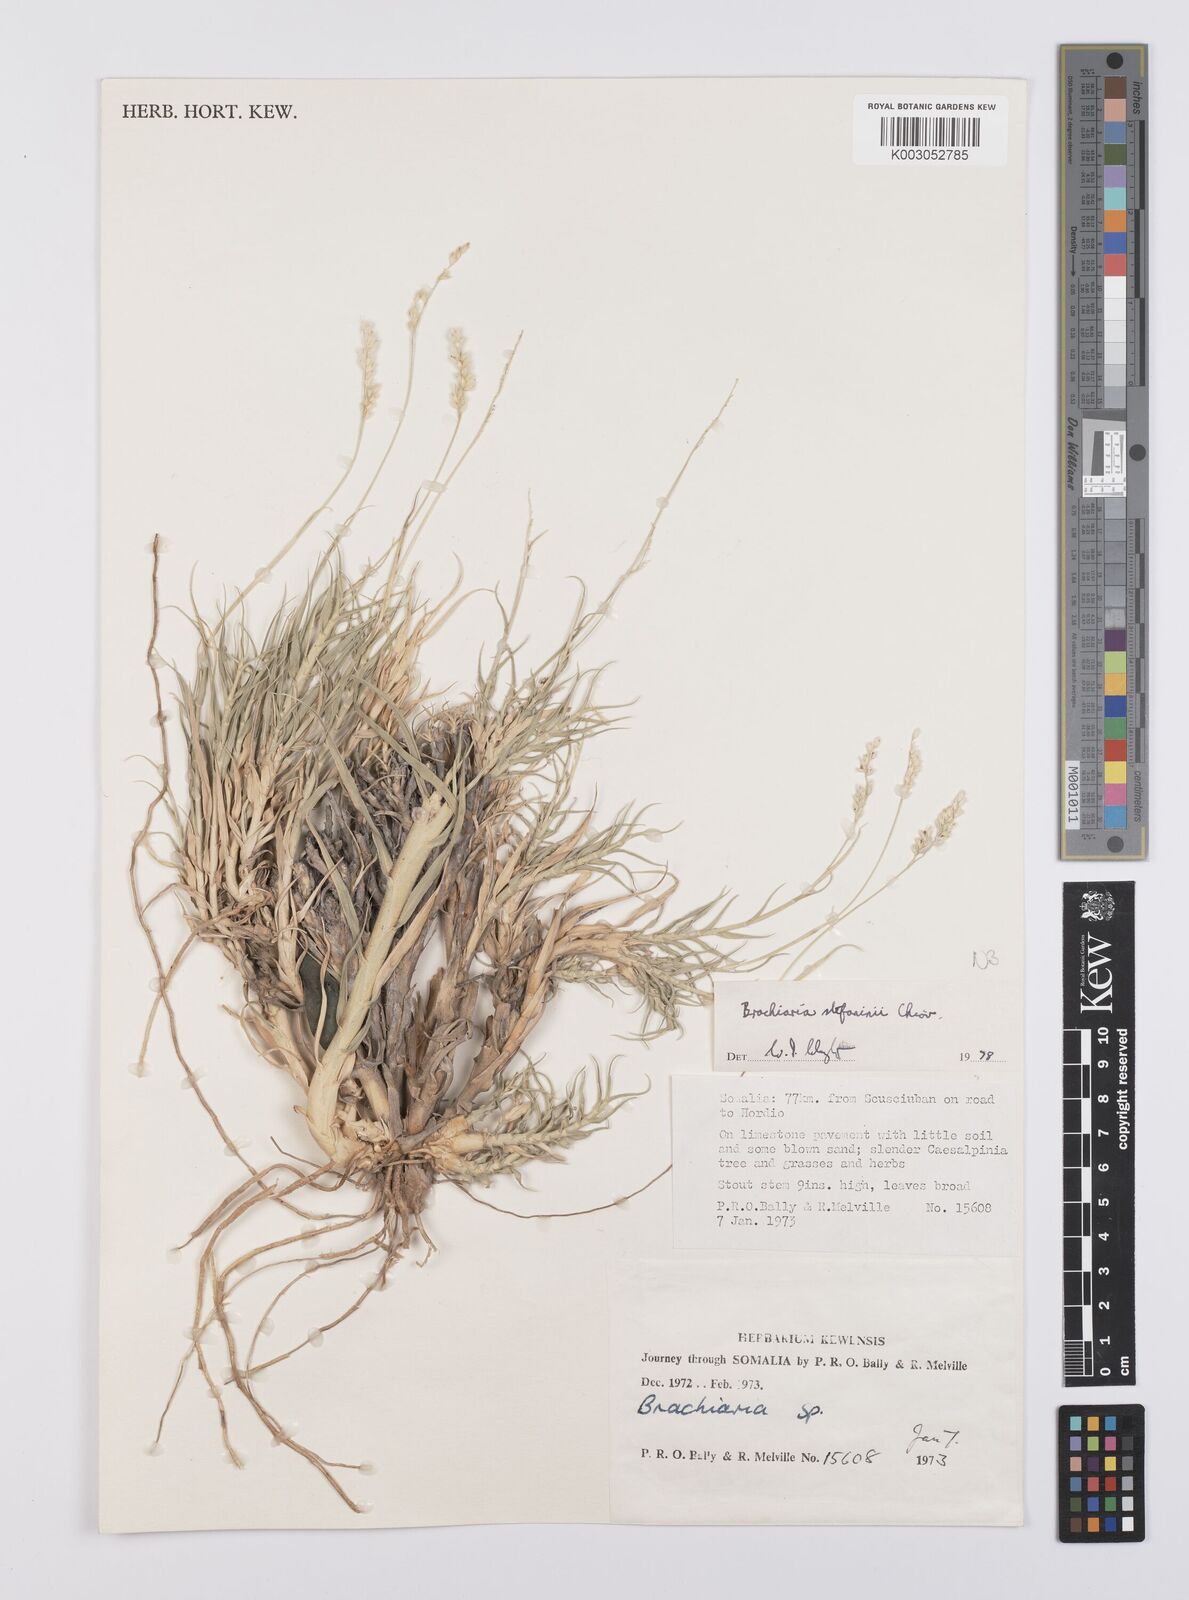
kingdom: Plantae
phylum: Tracheophyta
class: Liliopsida
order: Poales
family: Poaceae
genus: Urochloa
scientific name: Urochloa Brachiaria stefaninii
